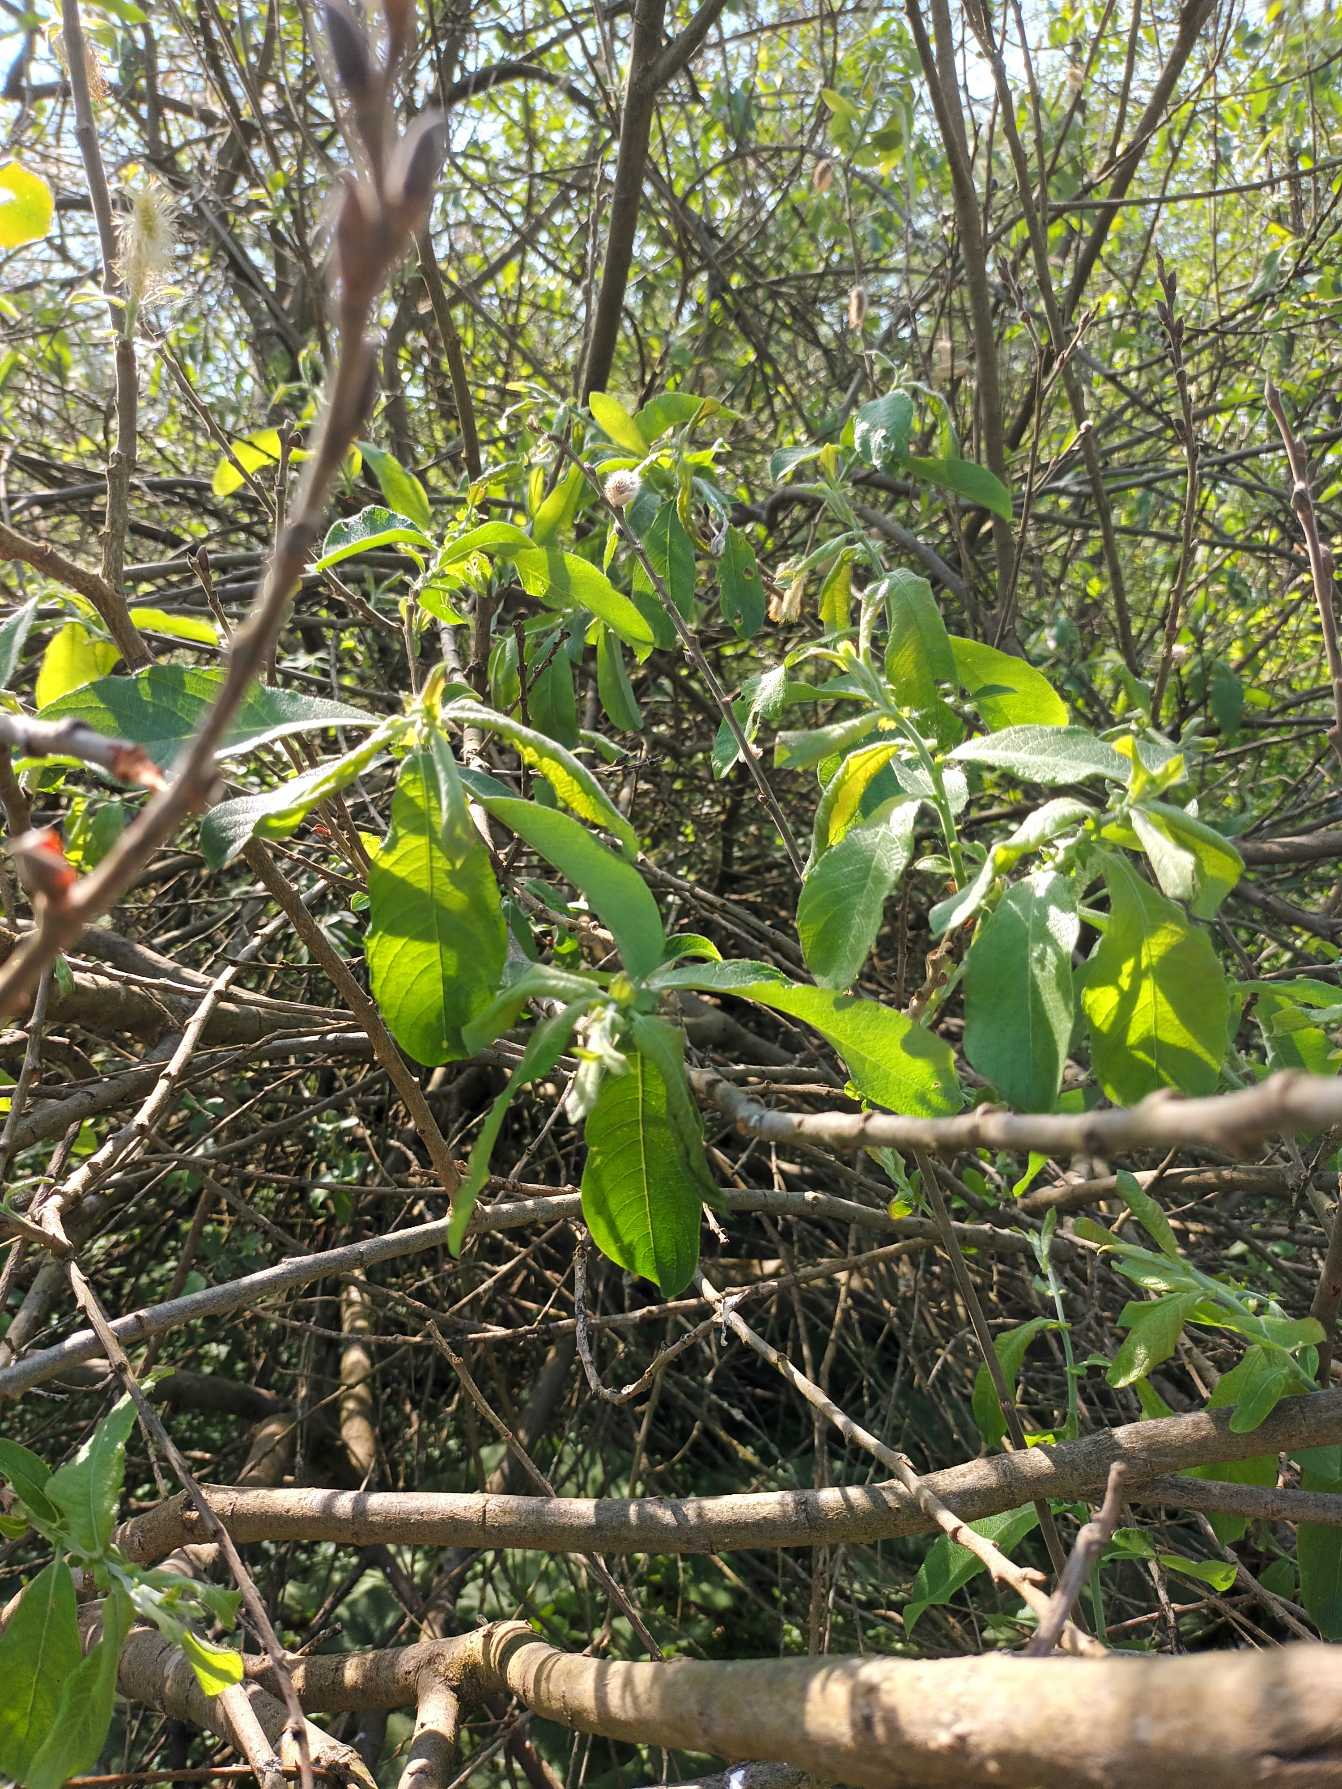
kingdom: Plantae
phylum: Tracheophyta
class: Magnoliopsida
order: Malpighiales
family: Salicaceae
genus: Salix
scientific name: Salix myrsinifolia
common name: Sort pil
